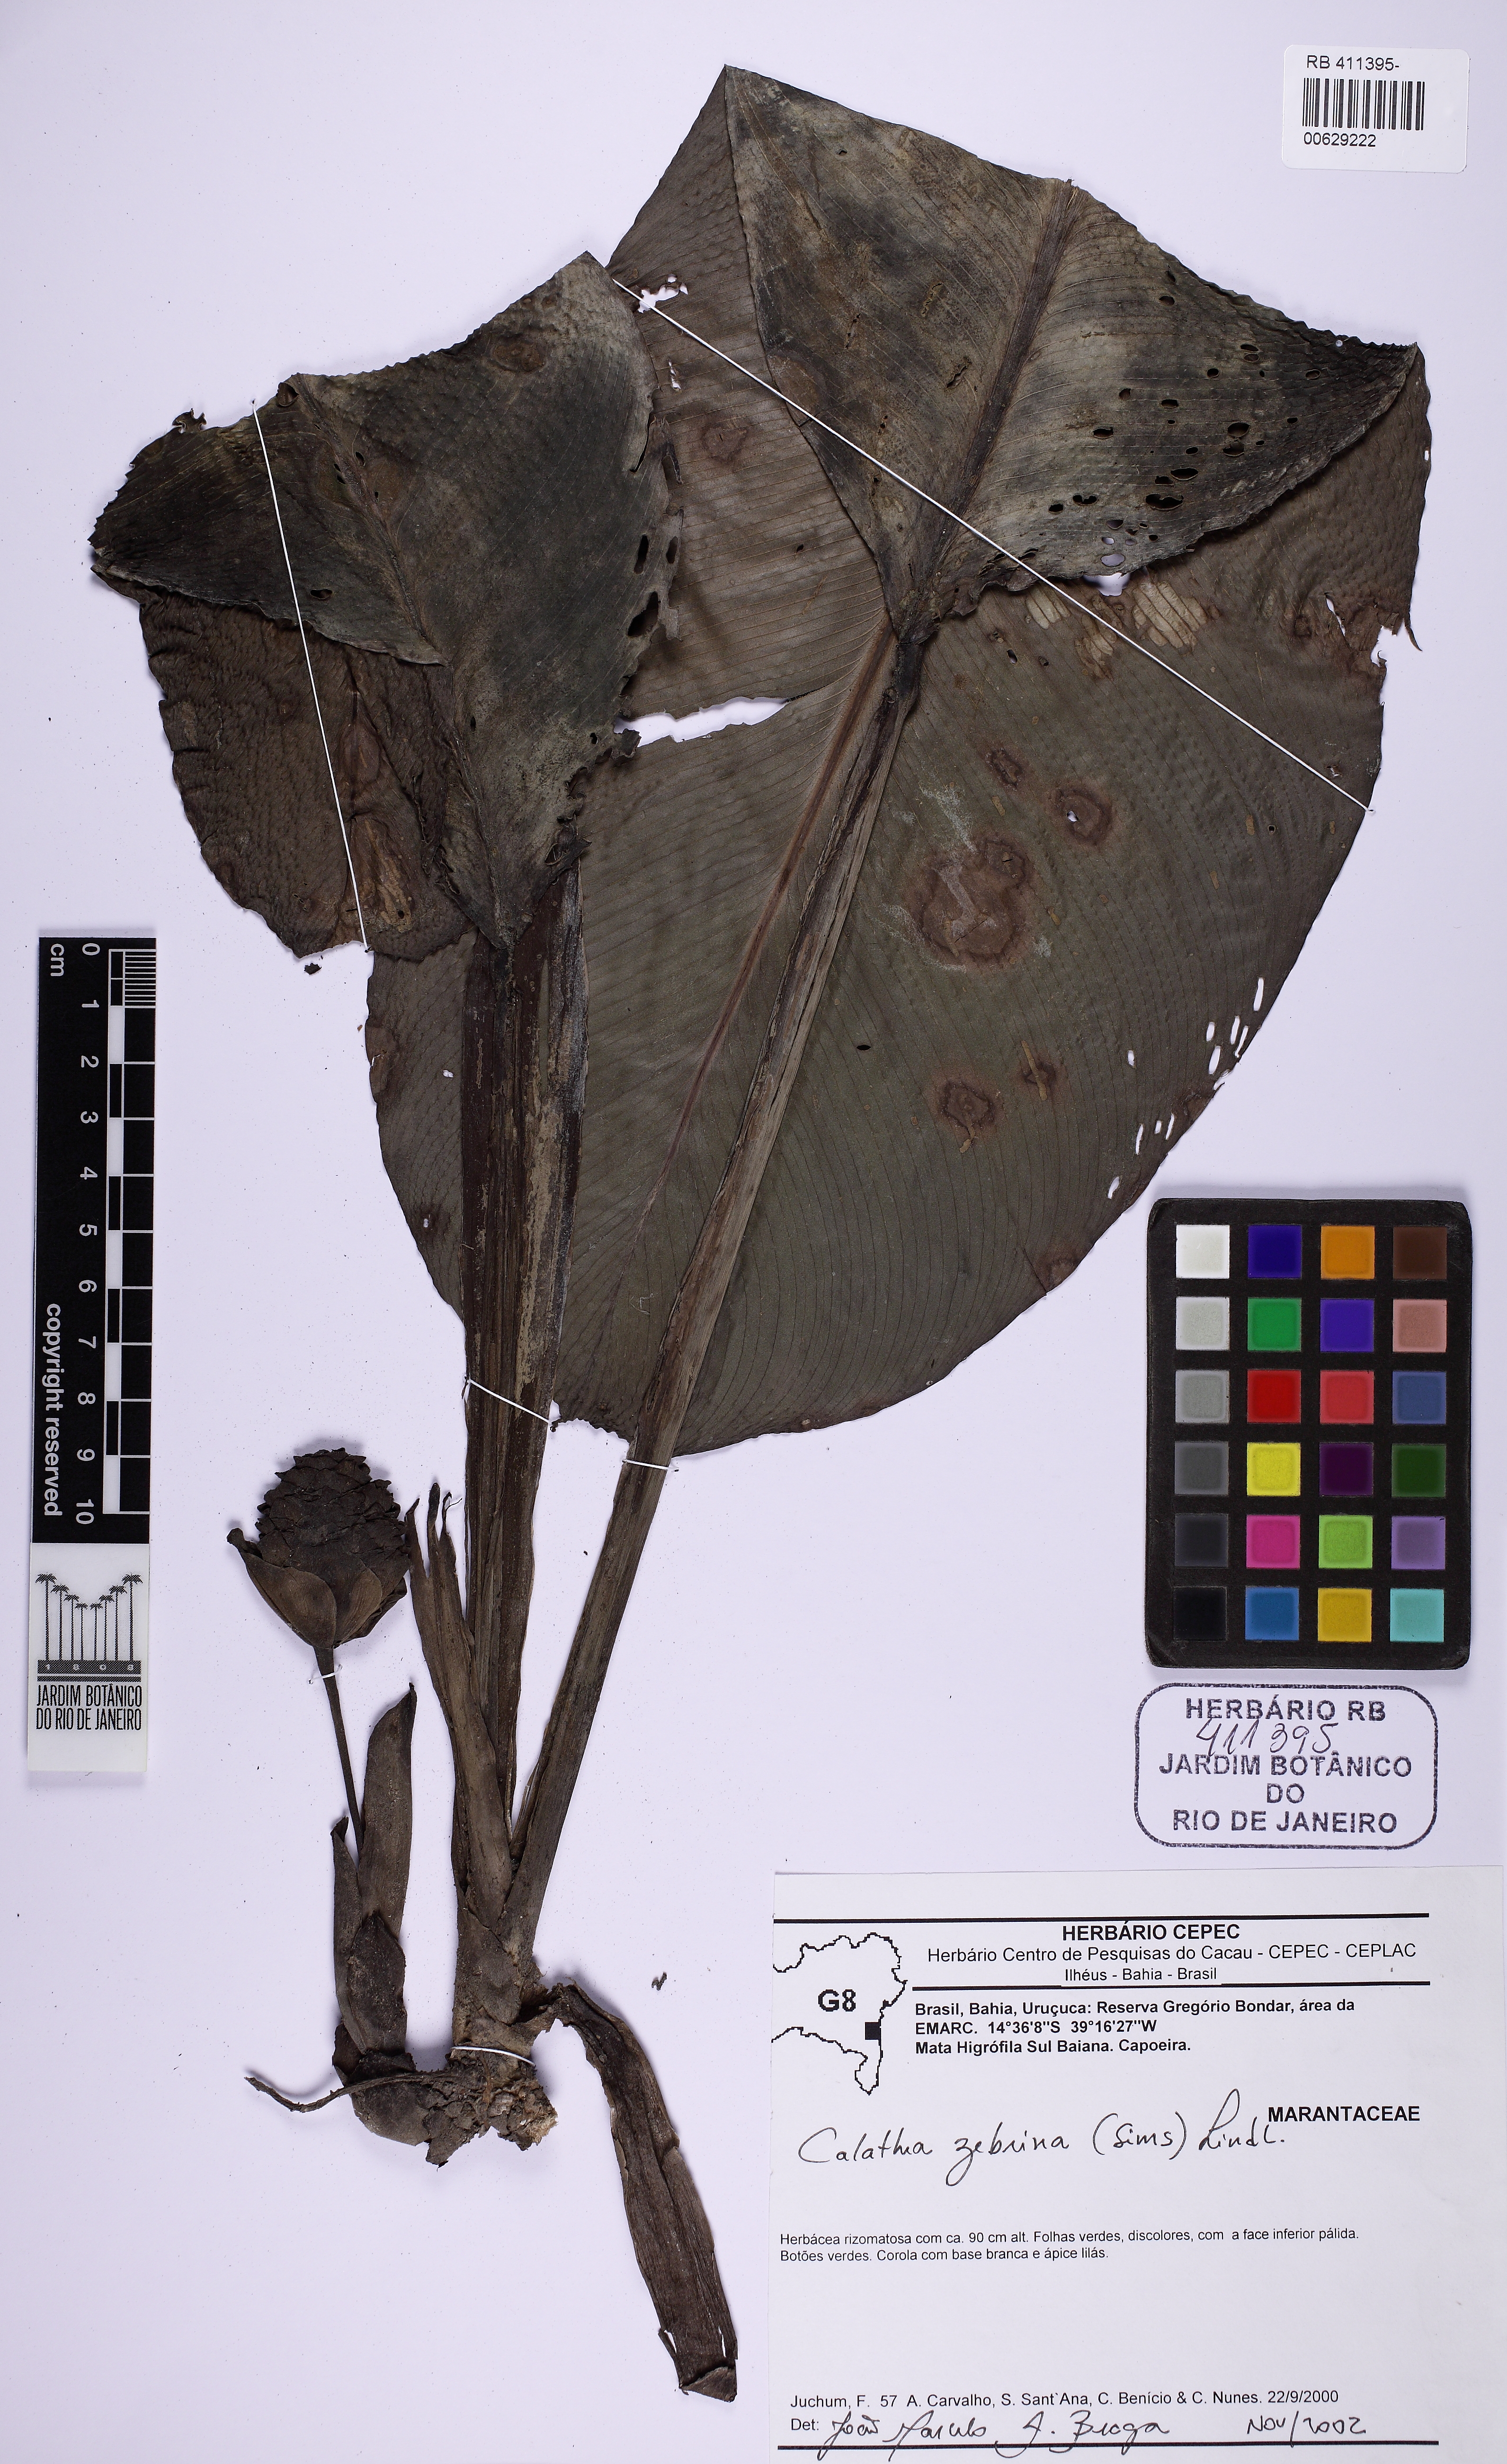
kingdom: Plantae
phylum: Tracheophyta
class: Liliopsida
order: Zingiberales
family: Marantaceae
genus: Goeppertia
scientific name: Goeppertia zebrina
